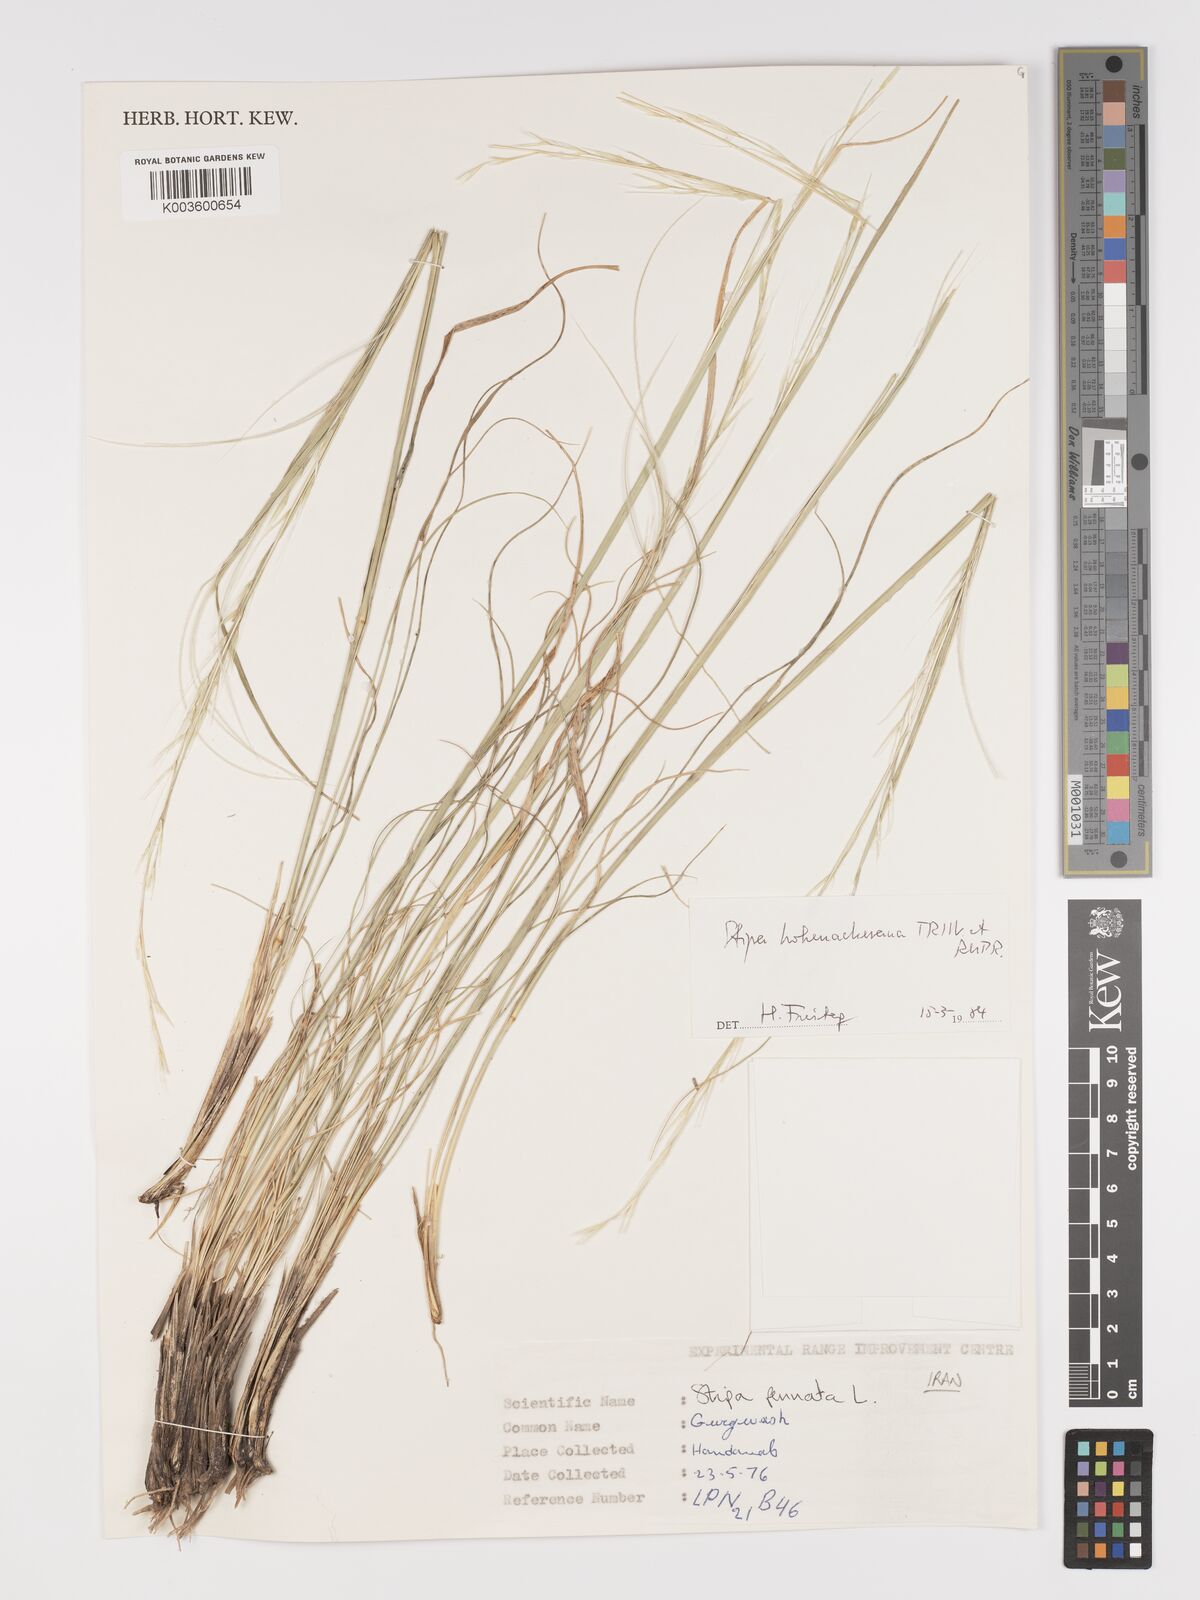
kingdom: Plantae
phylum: Tracheophyta
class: Liliopsida
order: Poales
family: Poaceae
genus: Stipa
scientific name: Stipa hohenackeriana
